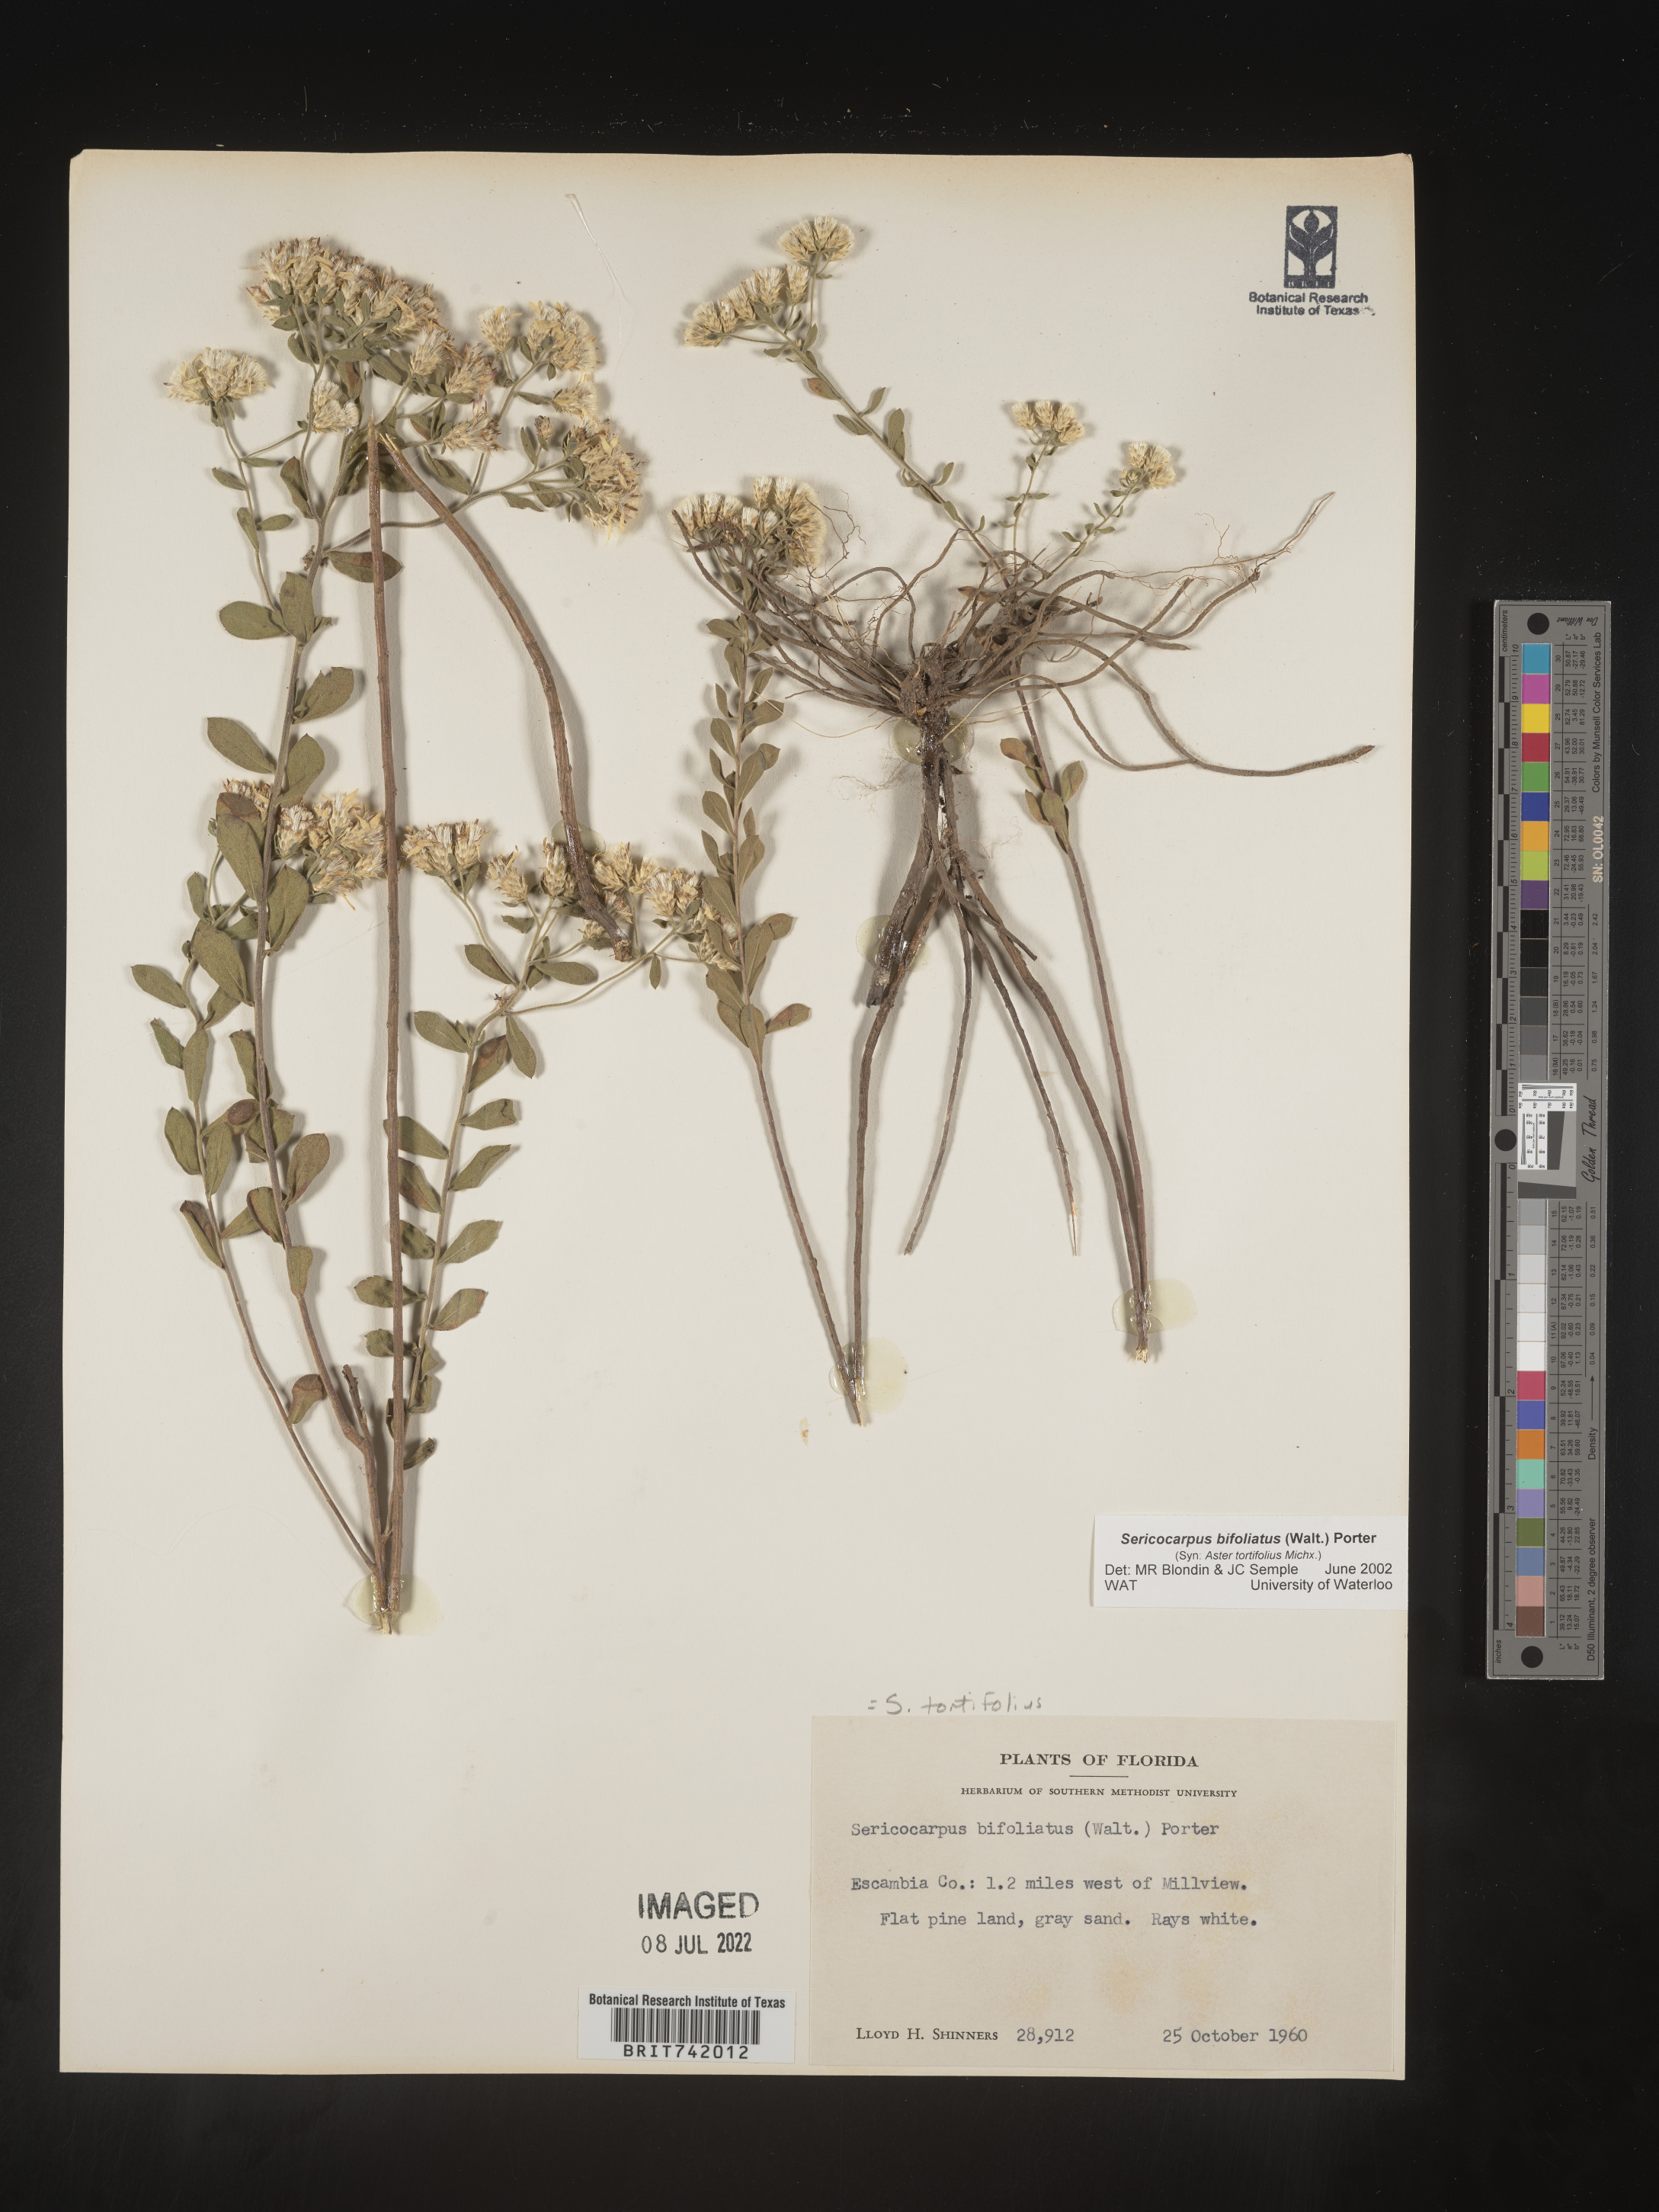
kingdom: Plantae
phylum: Tracheophyta
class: Magnoliopsida
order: Asterales
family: Asteraceae
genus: Sericocarpus
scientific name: Sericocarpus tortifolius
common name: Dixie aster
